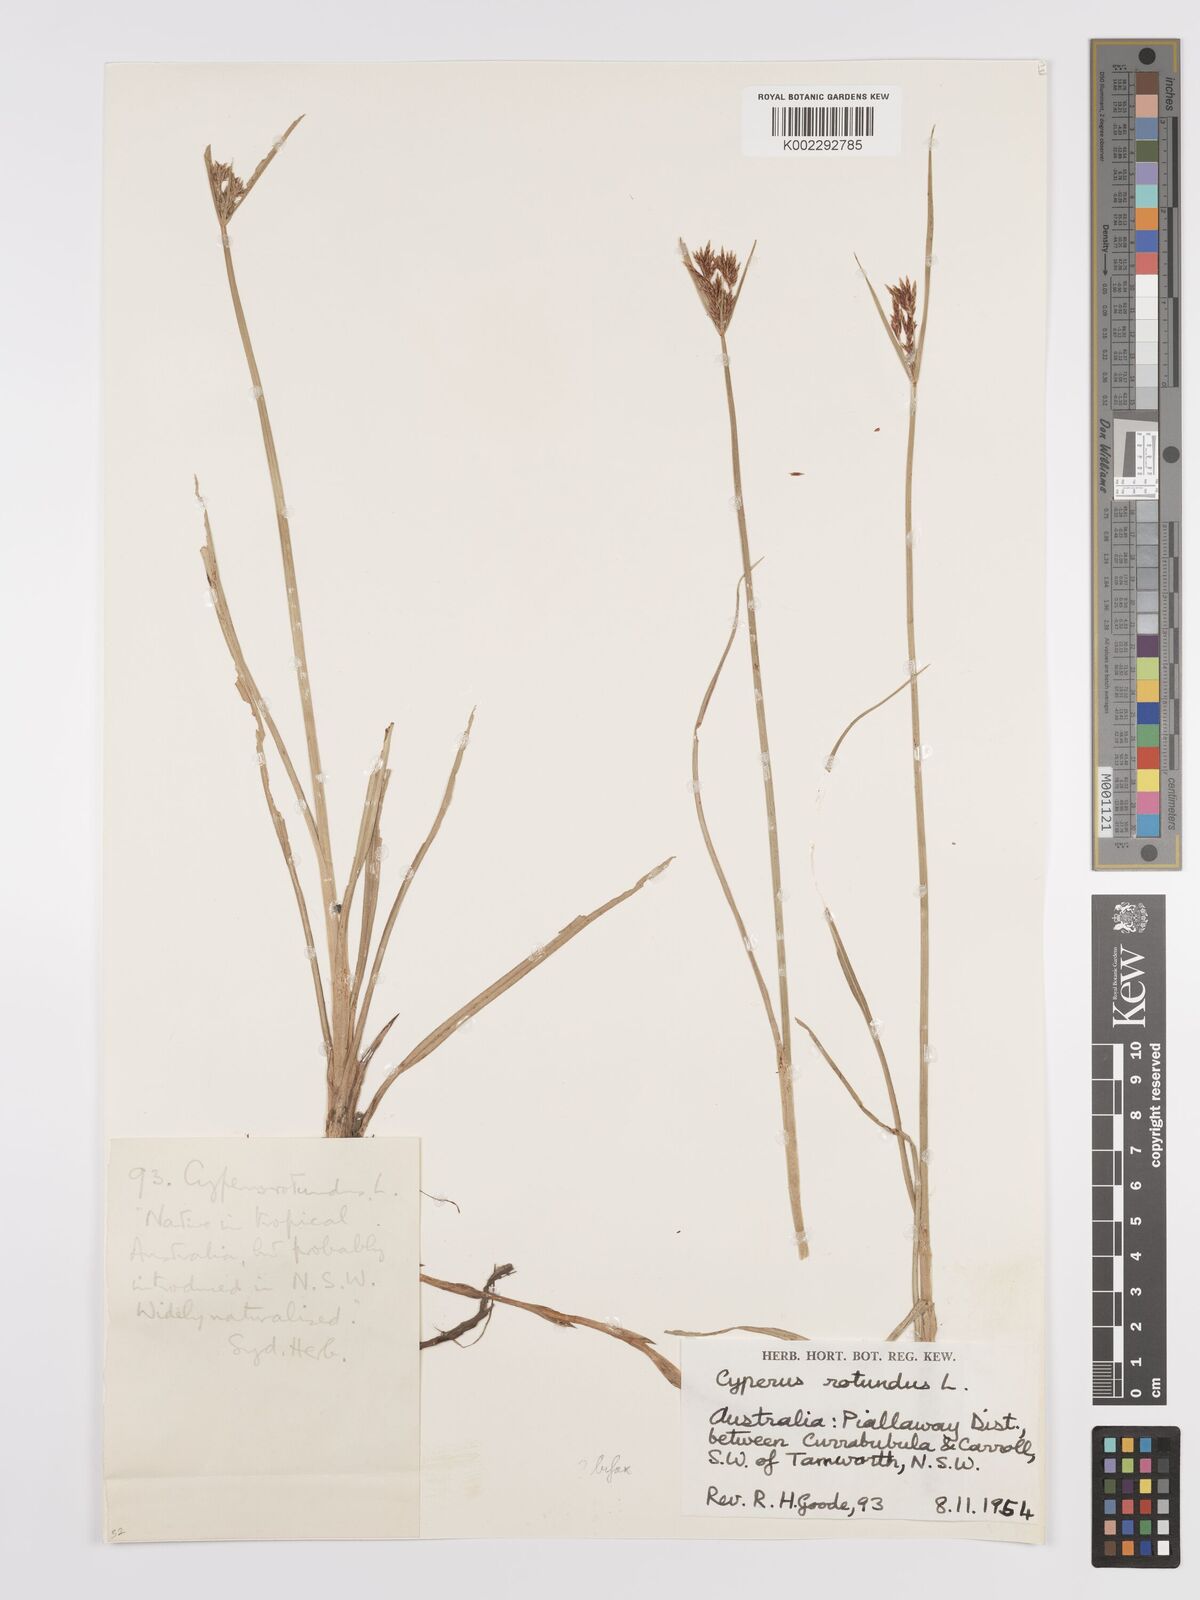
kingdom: Plantae
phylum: Tracheophyta
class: Liliopsida
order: Poales
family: Cyperaceae
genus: Cyperus
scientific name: Cyperus rotundus
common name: Nutgrass
